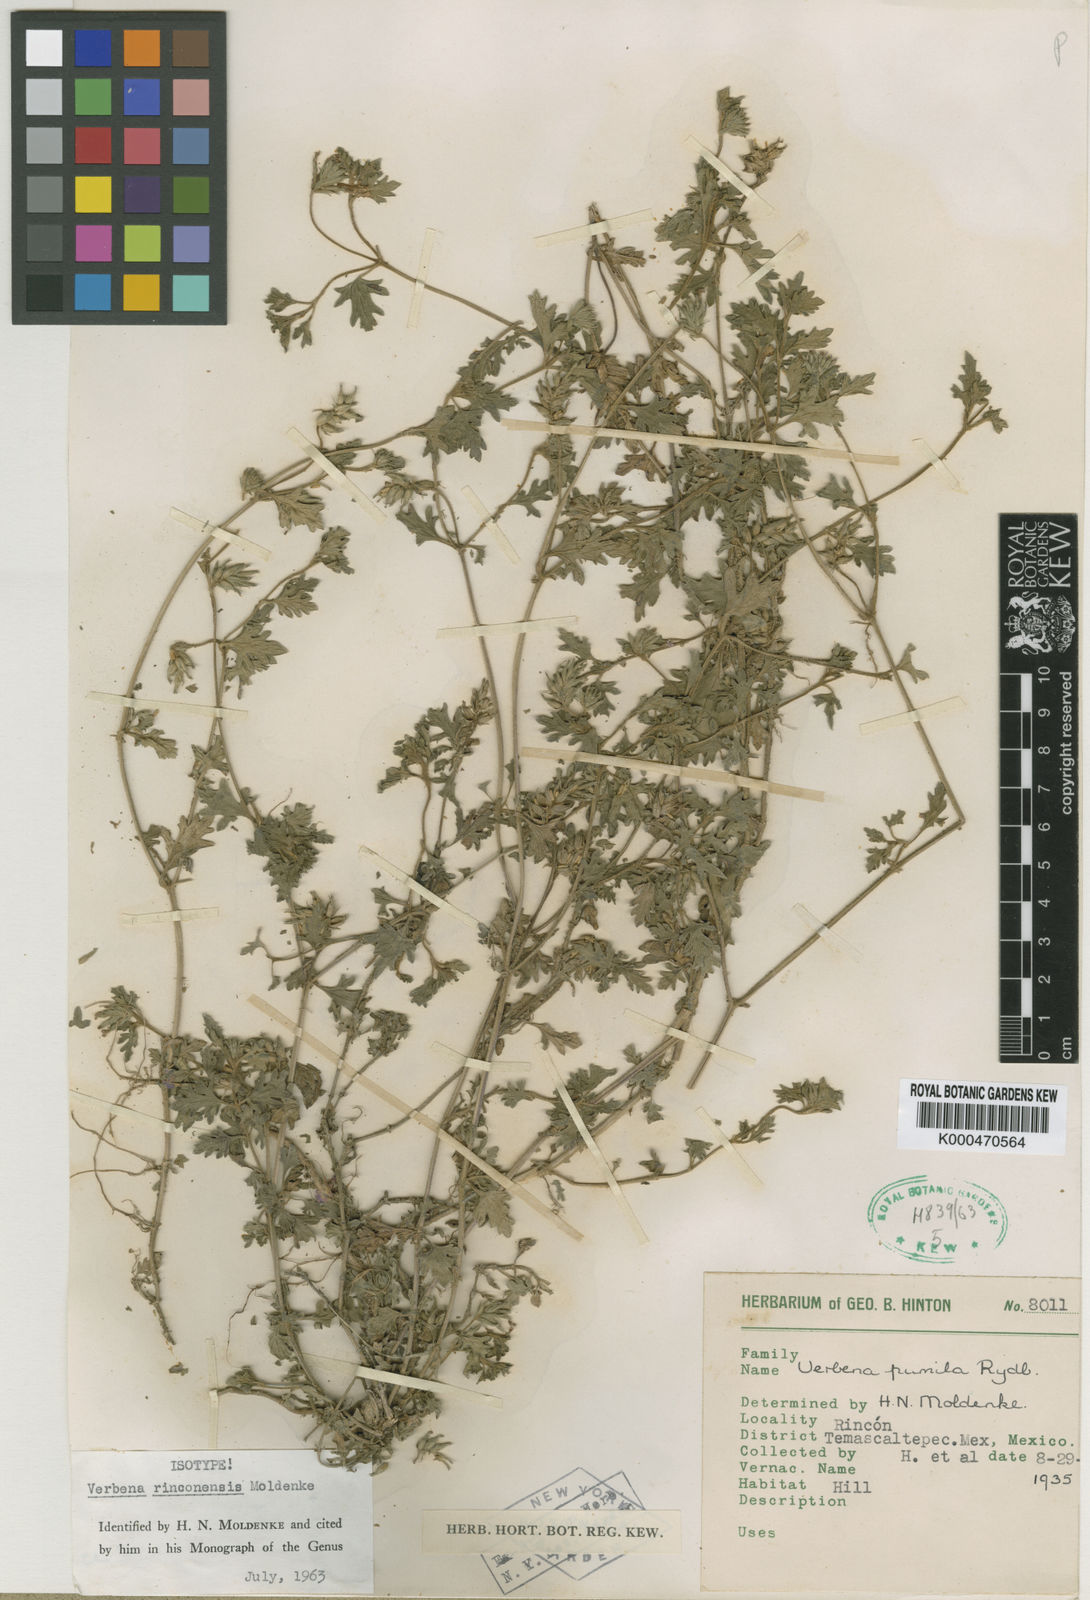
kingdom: Plantae
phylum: Tracheophyta
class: Magnoliopsida
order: Lamiales
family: Verbenaceae
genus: Verbena
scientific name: Verbena teucriifolia
